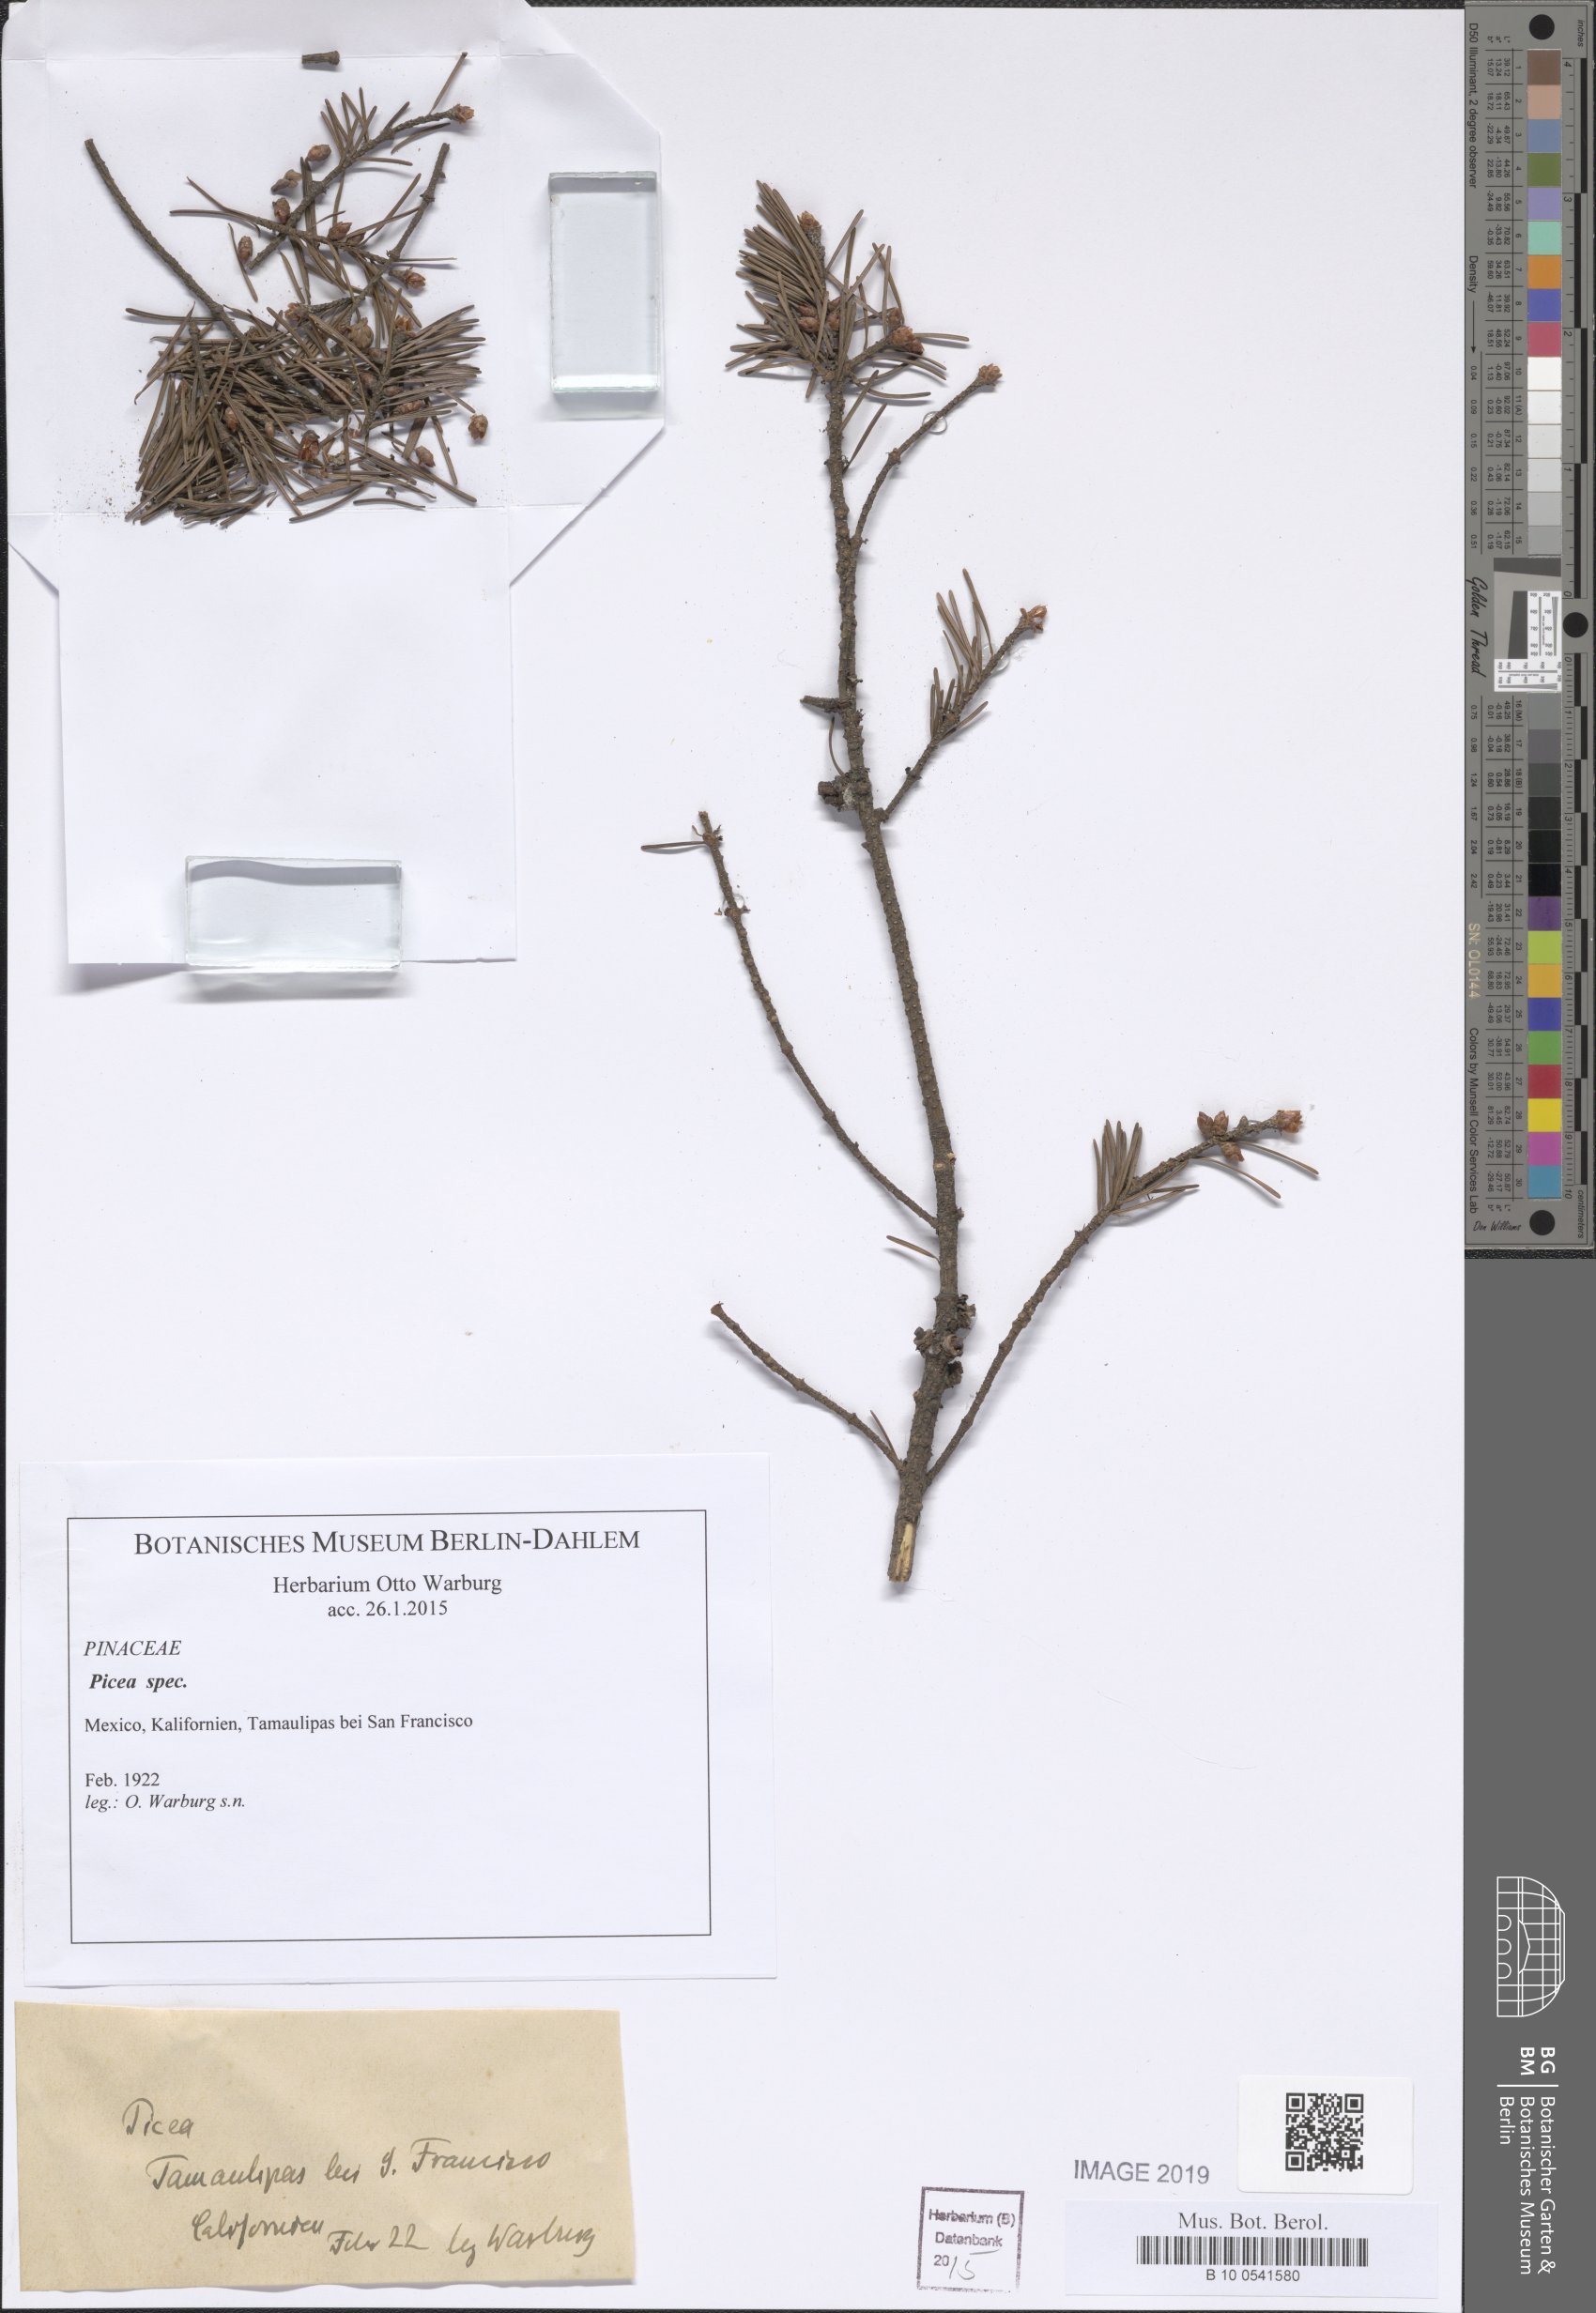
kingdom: Plantae
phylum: Tracheophyta
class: Pinopsida
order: Pinales
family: Pinaceae
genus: Picea
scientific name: Picea
